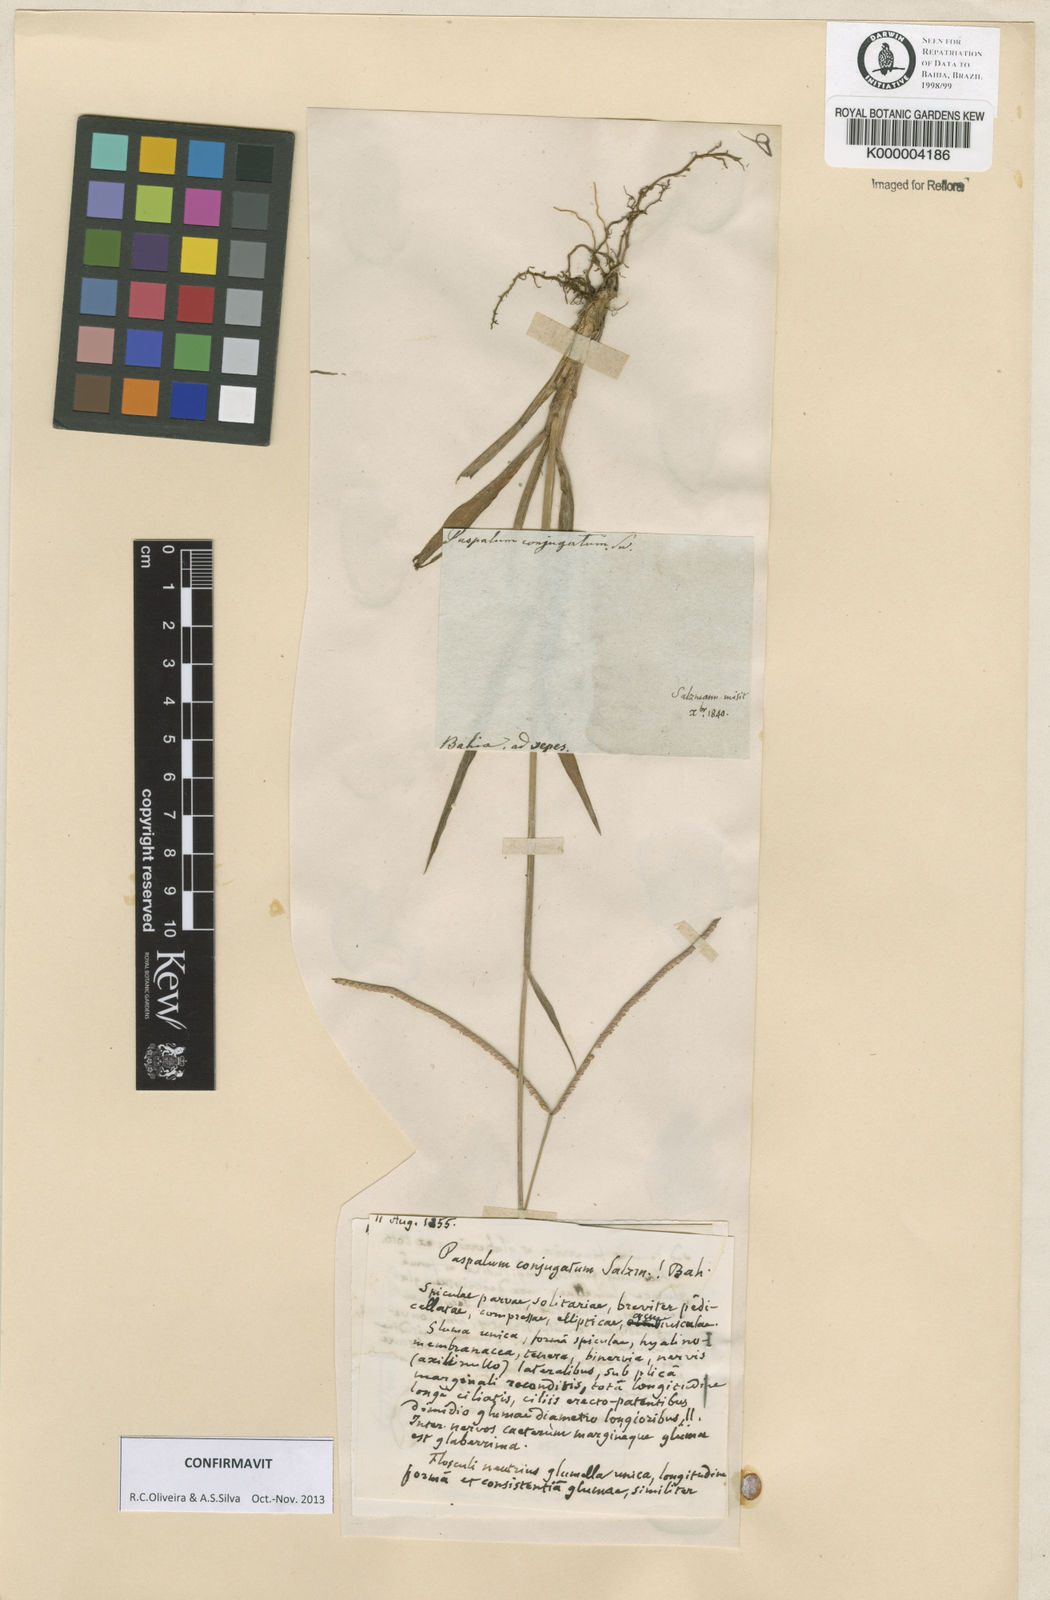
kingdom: Plantae
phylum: Tracheophyta
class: Liliopsida
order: Poales
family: Poaceae
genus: Paspalum
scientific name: Paspalum conjugatum
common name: Hilograss
